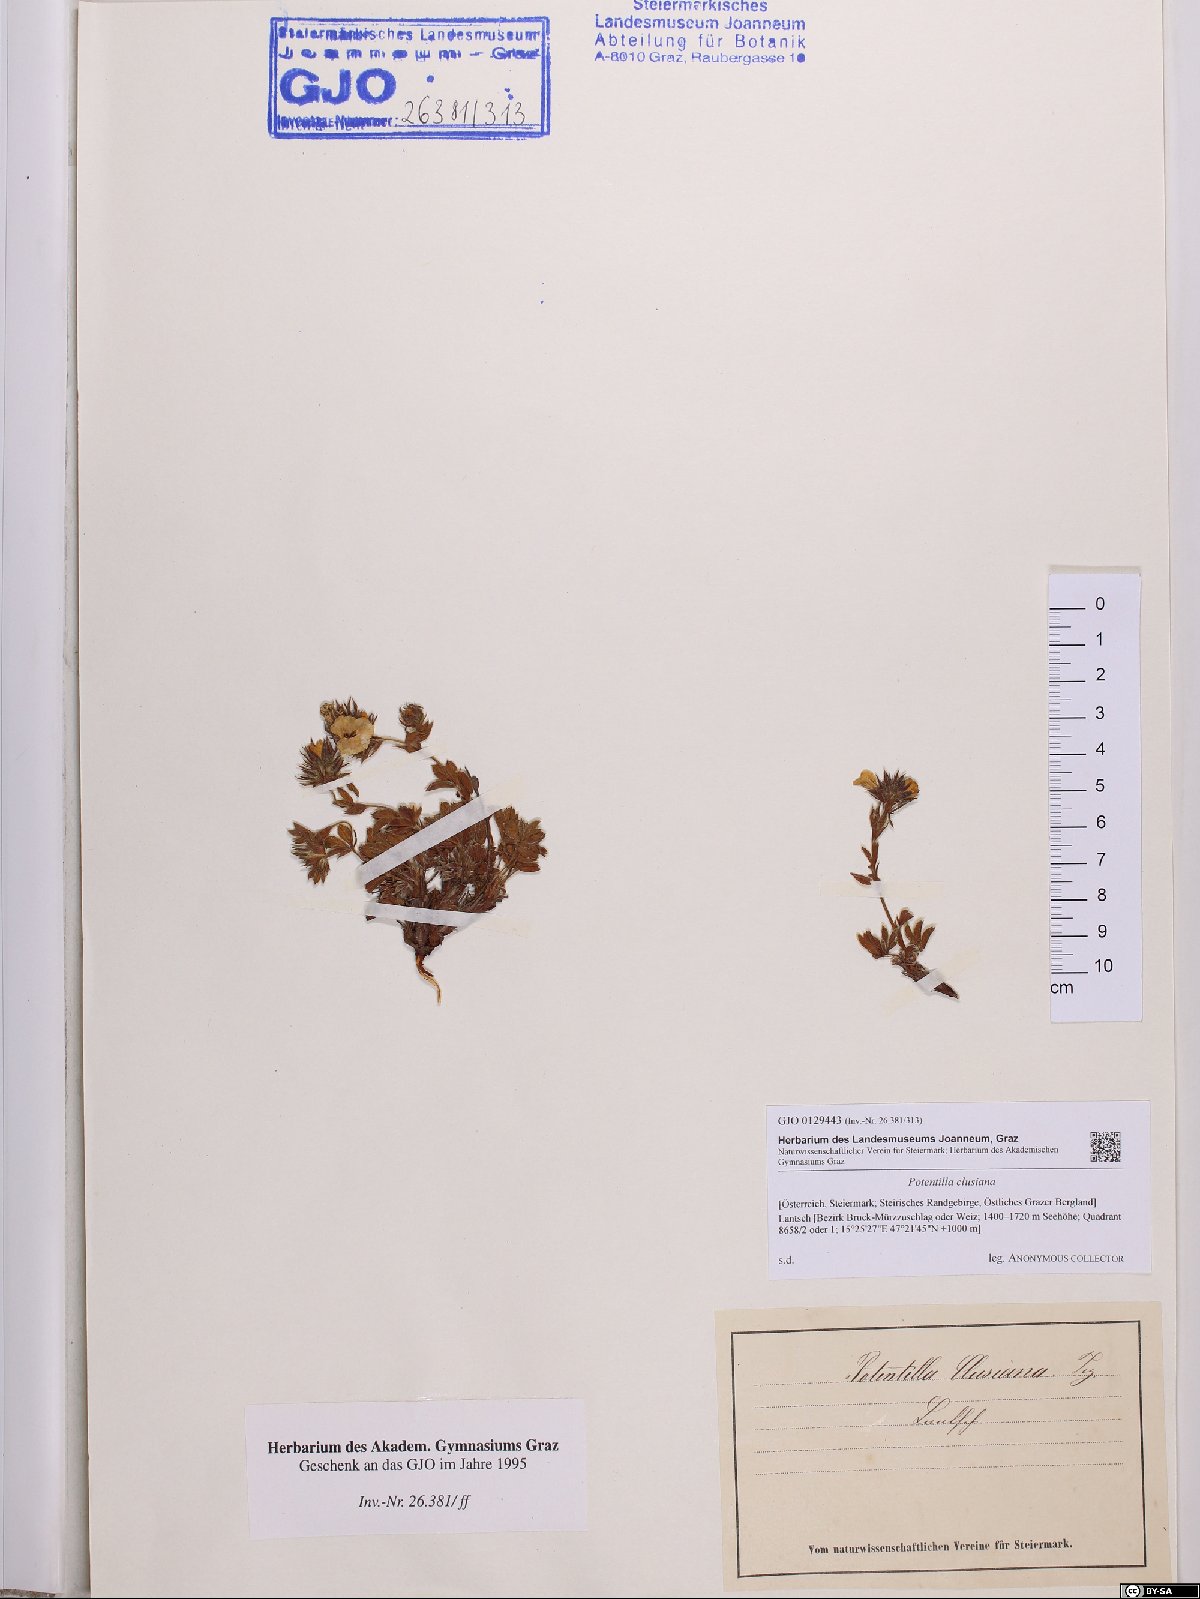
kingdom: Plantae
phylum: Tracheophyta
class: Magnoliopsida
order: Rosales
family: Rosaceae
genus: Potentilla
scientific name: Potentilla clusiana
